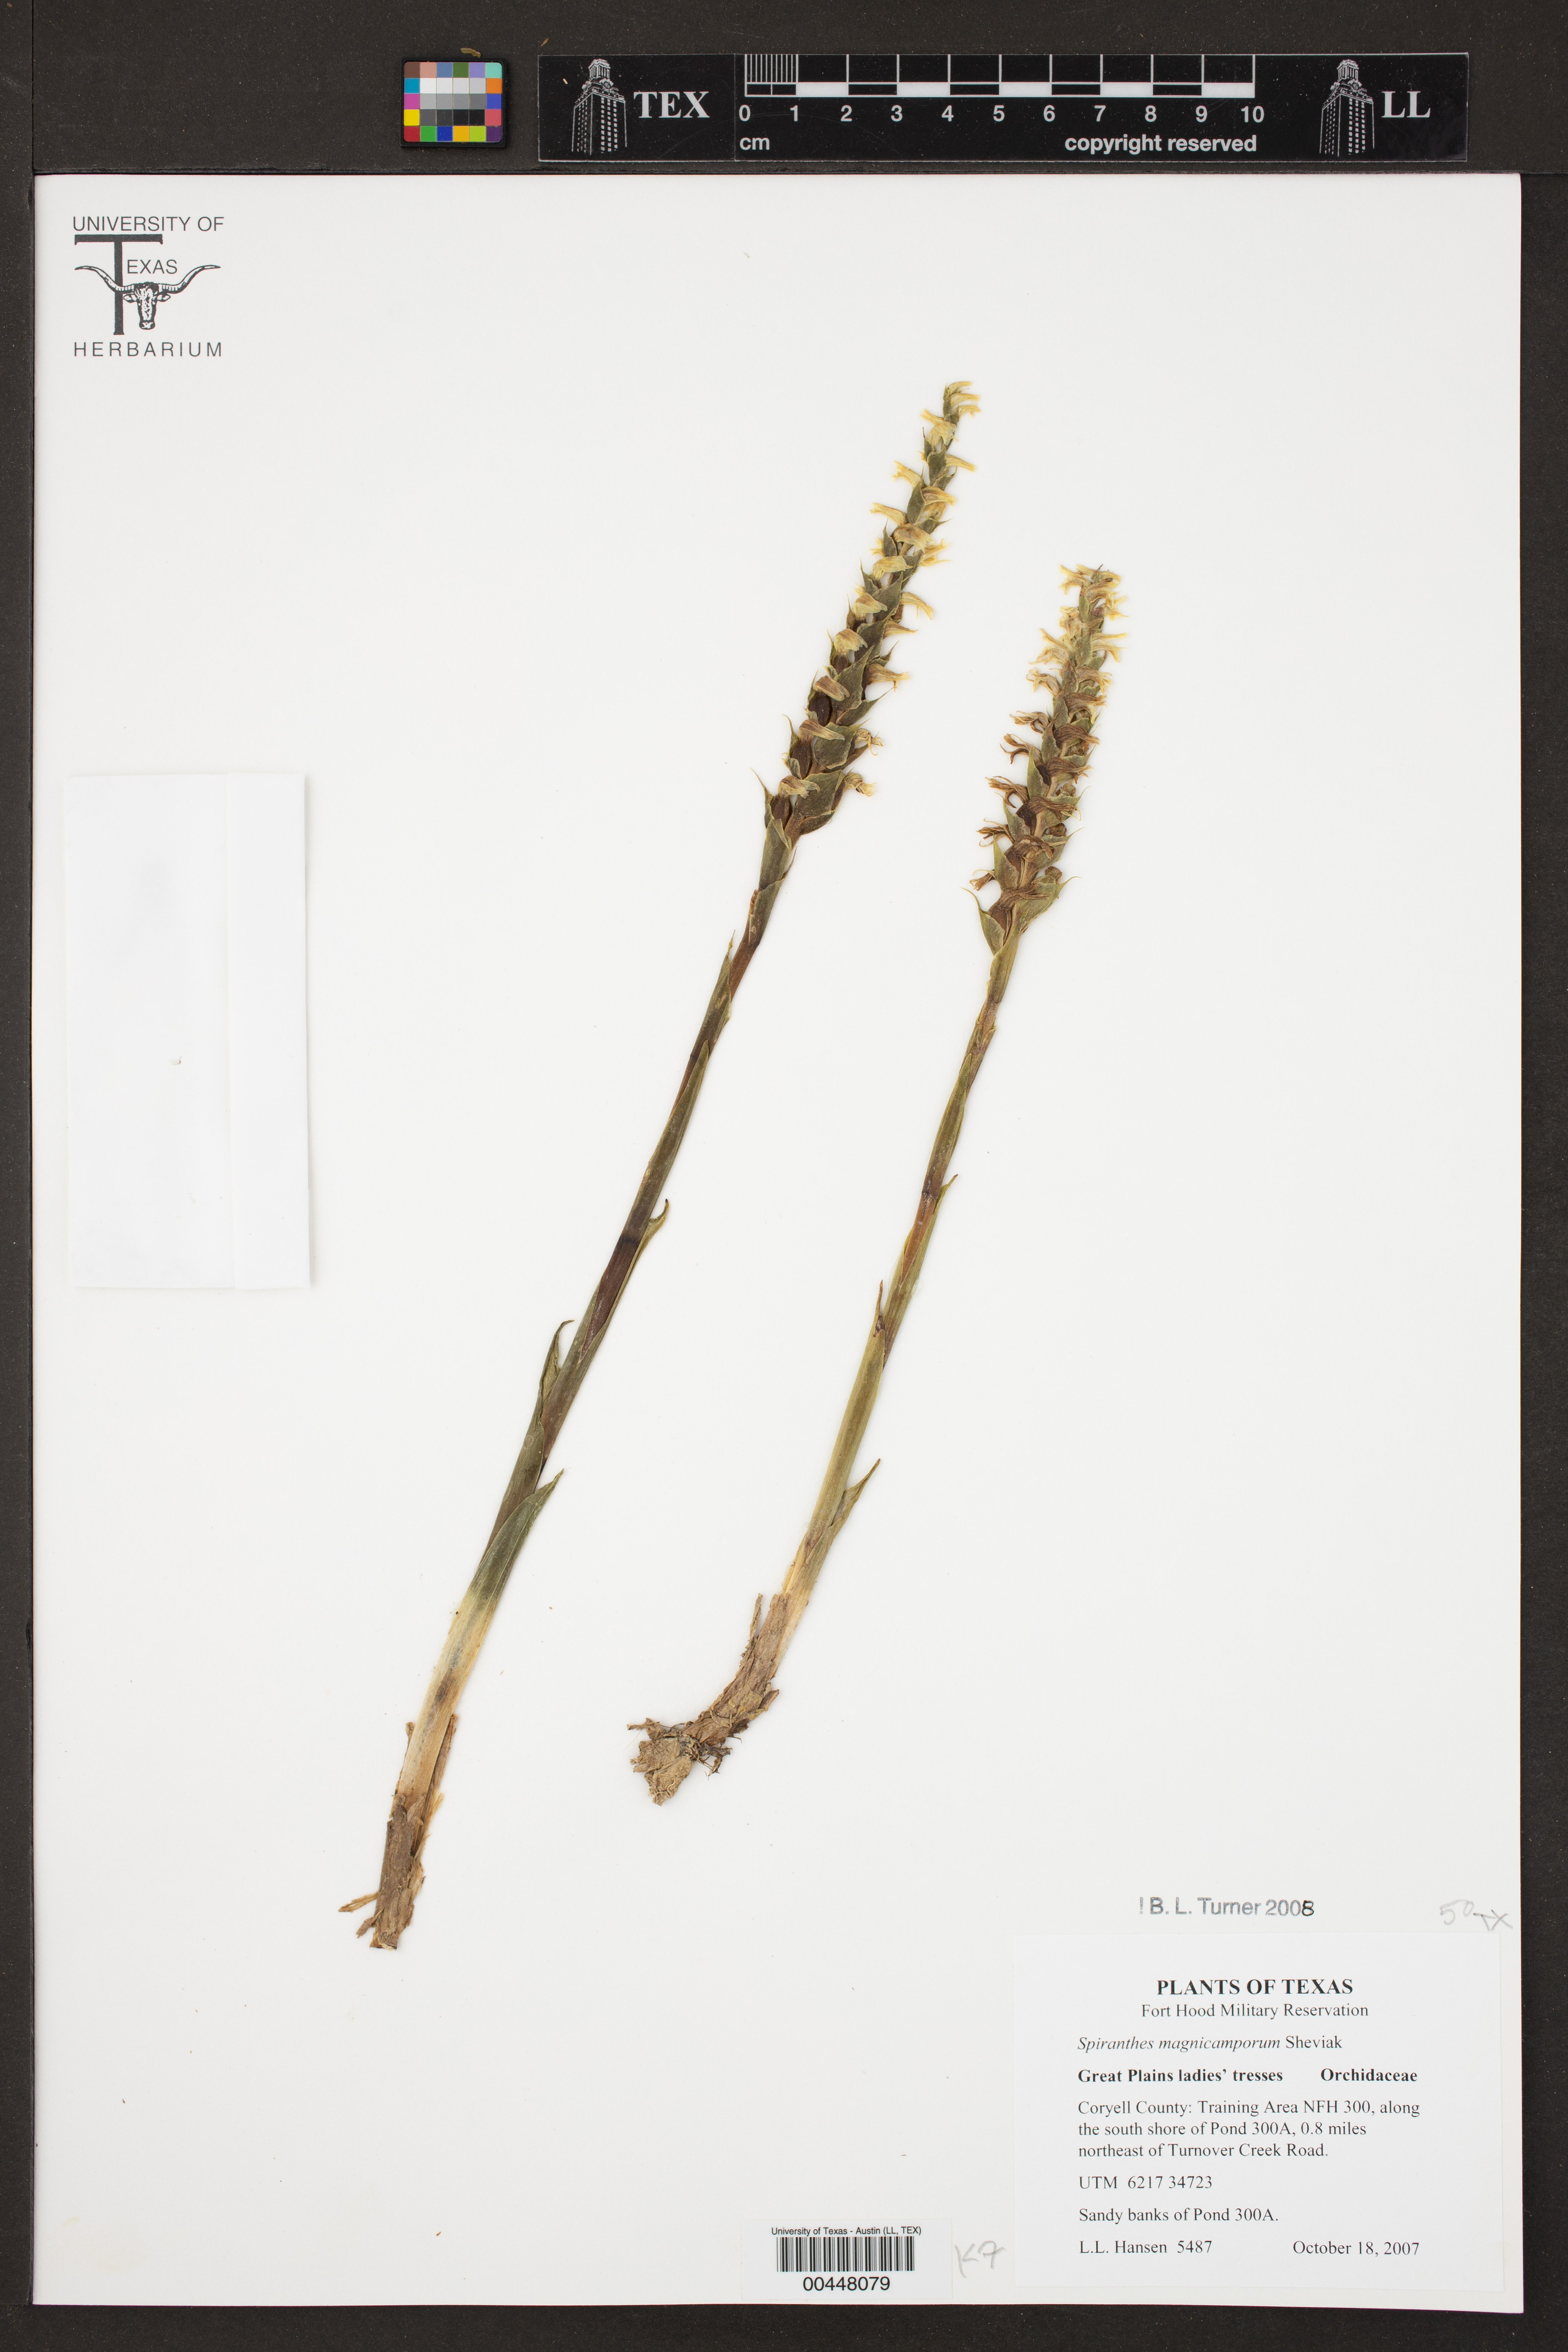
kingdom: Plantae
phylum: Tracheophyta
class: Liliopsida
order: Asparagales
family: Orchidaceae
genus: Spiranthes
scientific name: Spiranthes magnicamporum
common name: Great plains ladies'-tresses
